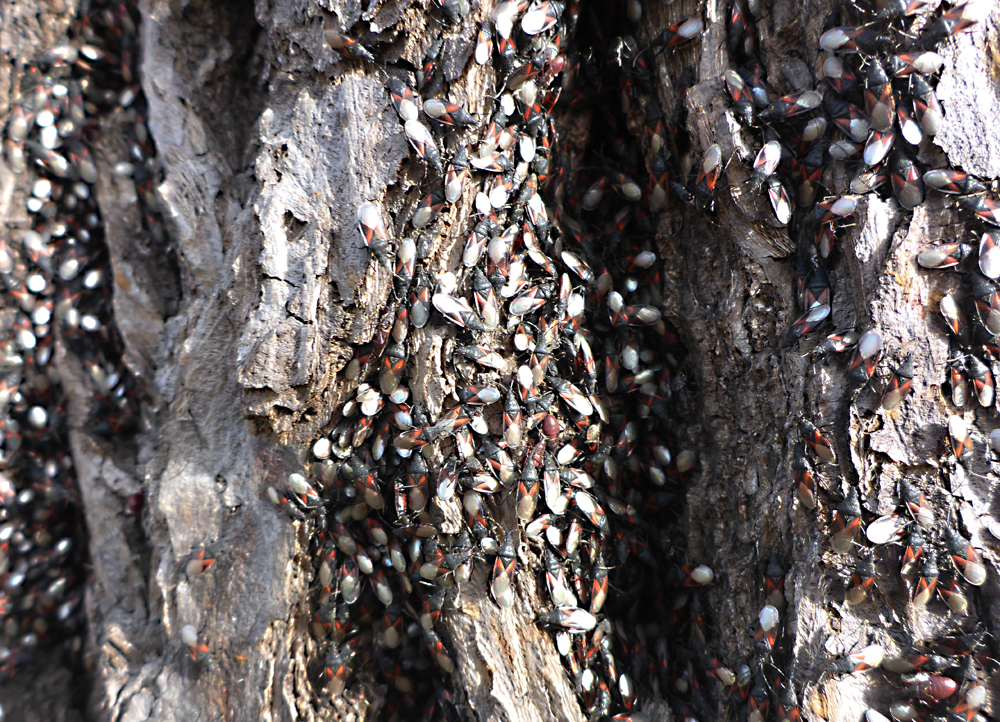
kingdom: Animalia
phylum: Arthropoda
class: Insecta
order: Hemiptera
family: Oxycarenidae
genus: Oxycarenus
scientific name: Oxycarenus lavaterae
